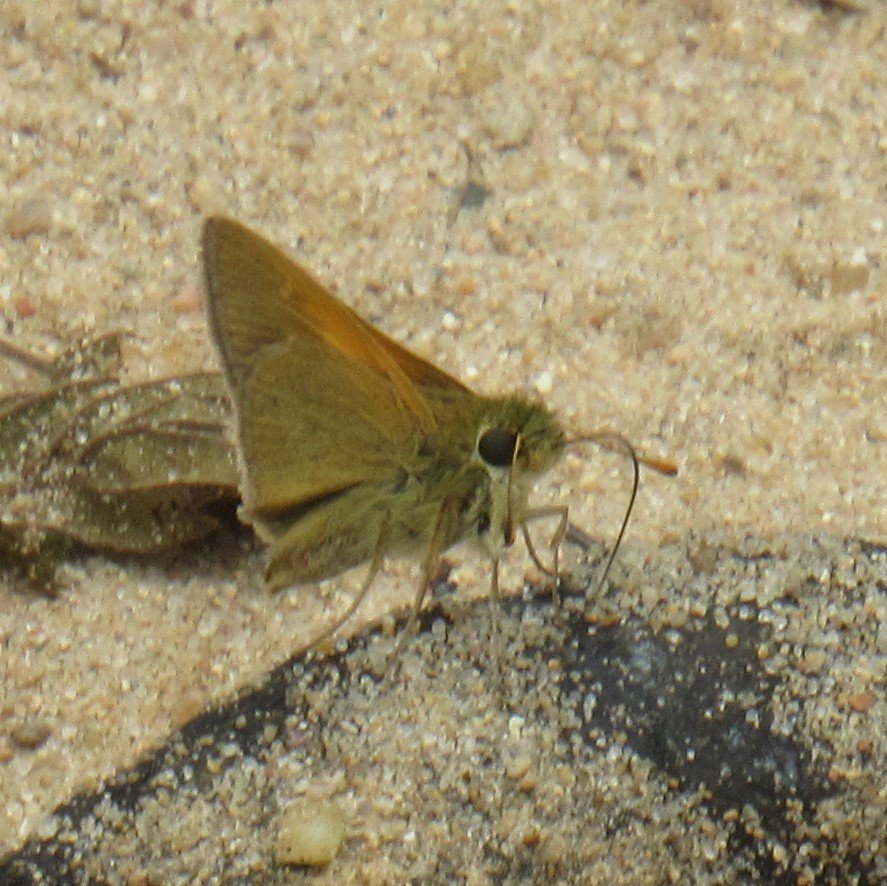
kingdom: Animalia
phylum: Arthropoda
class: Insecta
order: Lepidoptera
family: Hesperiidae
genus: Polites
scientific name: Polites themistocles
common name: Tawny-edged Skipper
